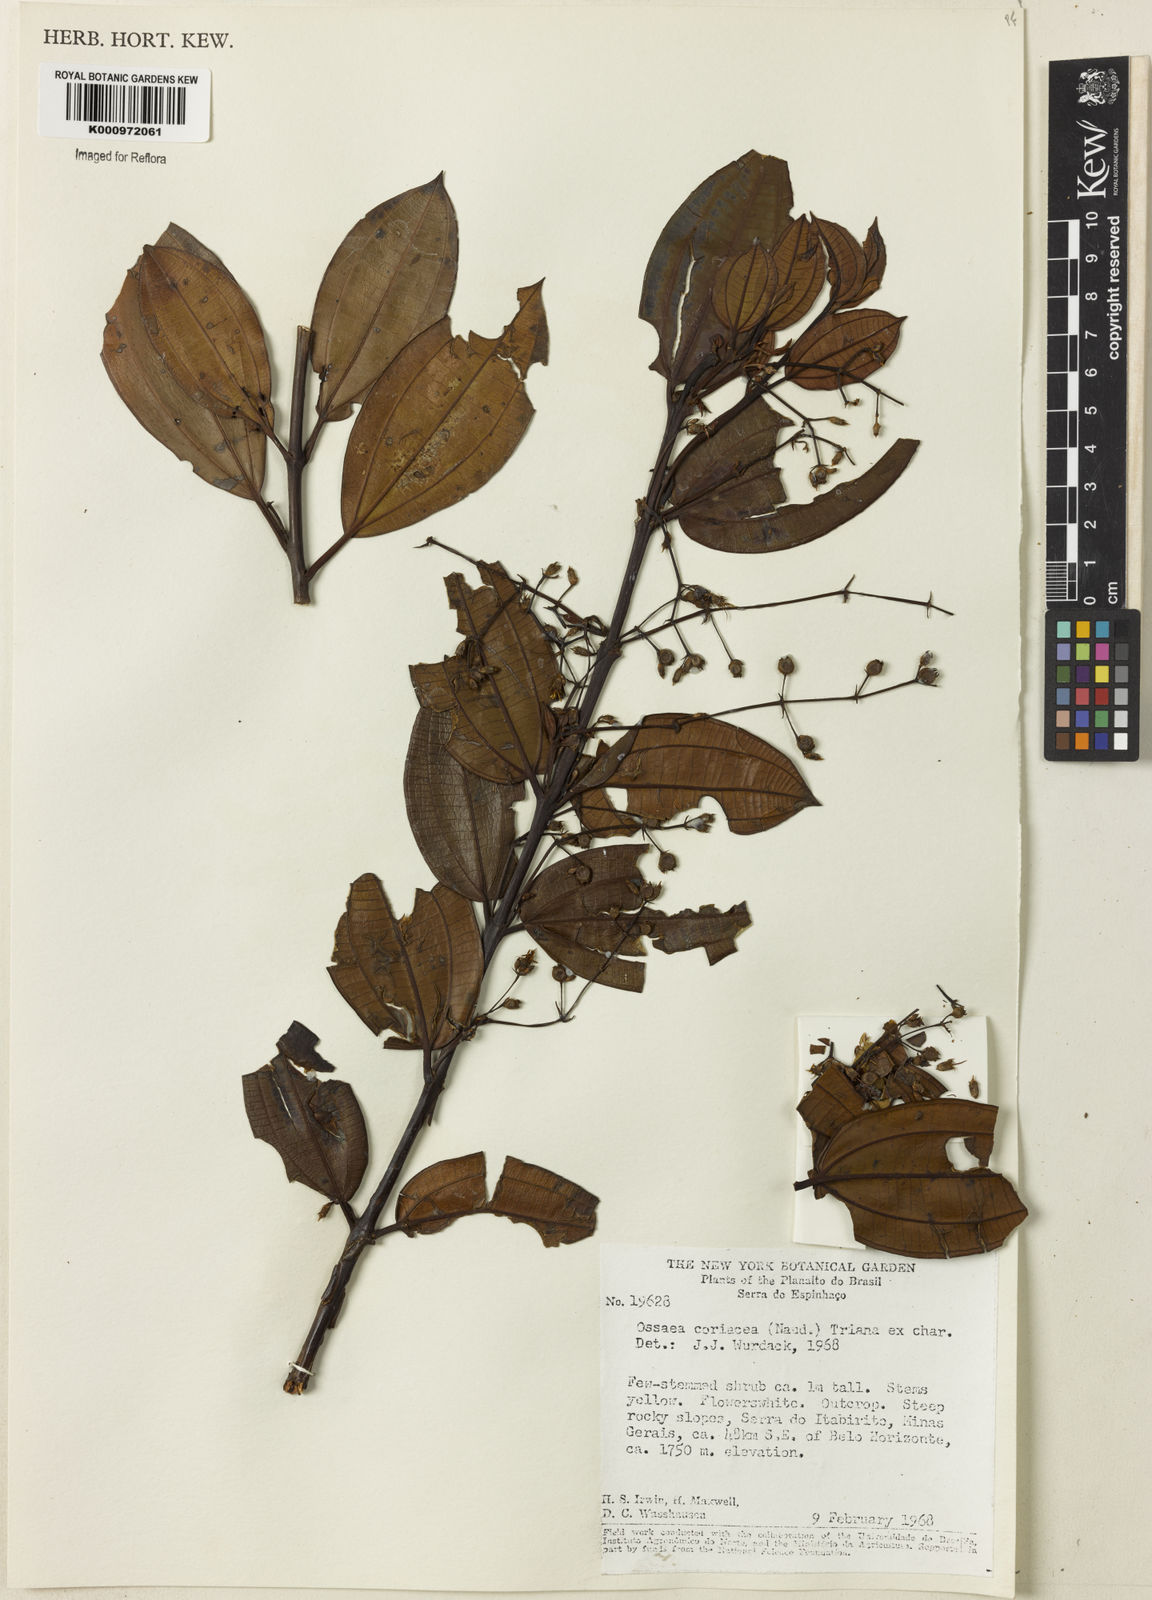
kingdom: Plantae
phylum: Tracheophyta
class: Magnoliopsida
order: Myrtales
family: Melastomataceae
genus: Miconia
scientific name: Miconia leacongestiflora
